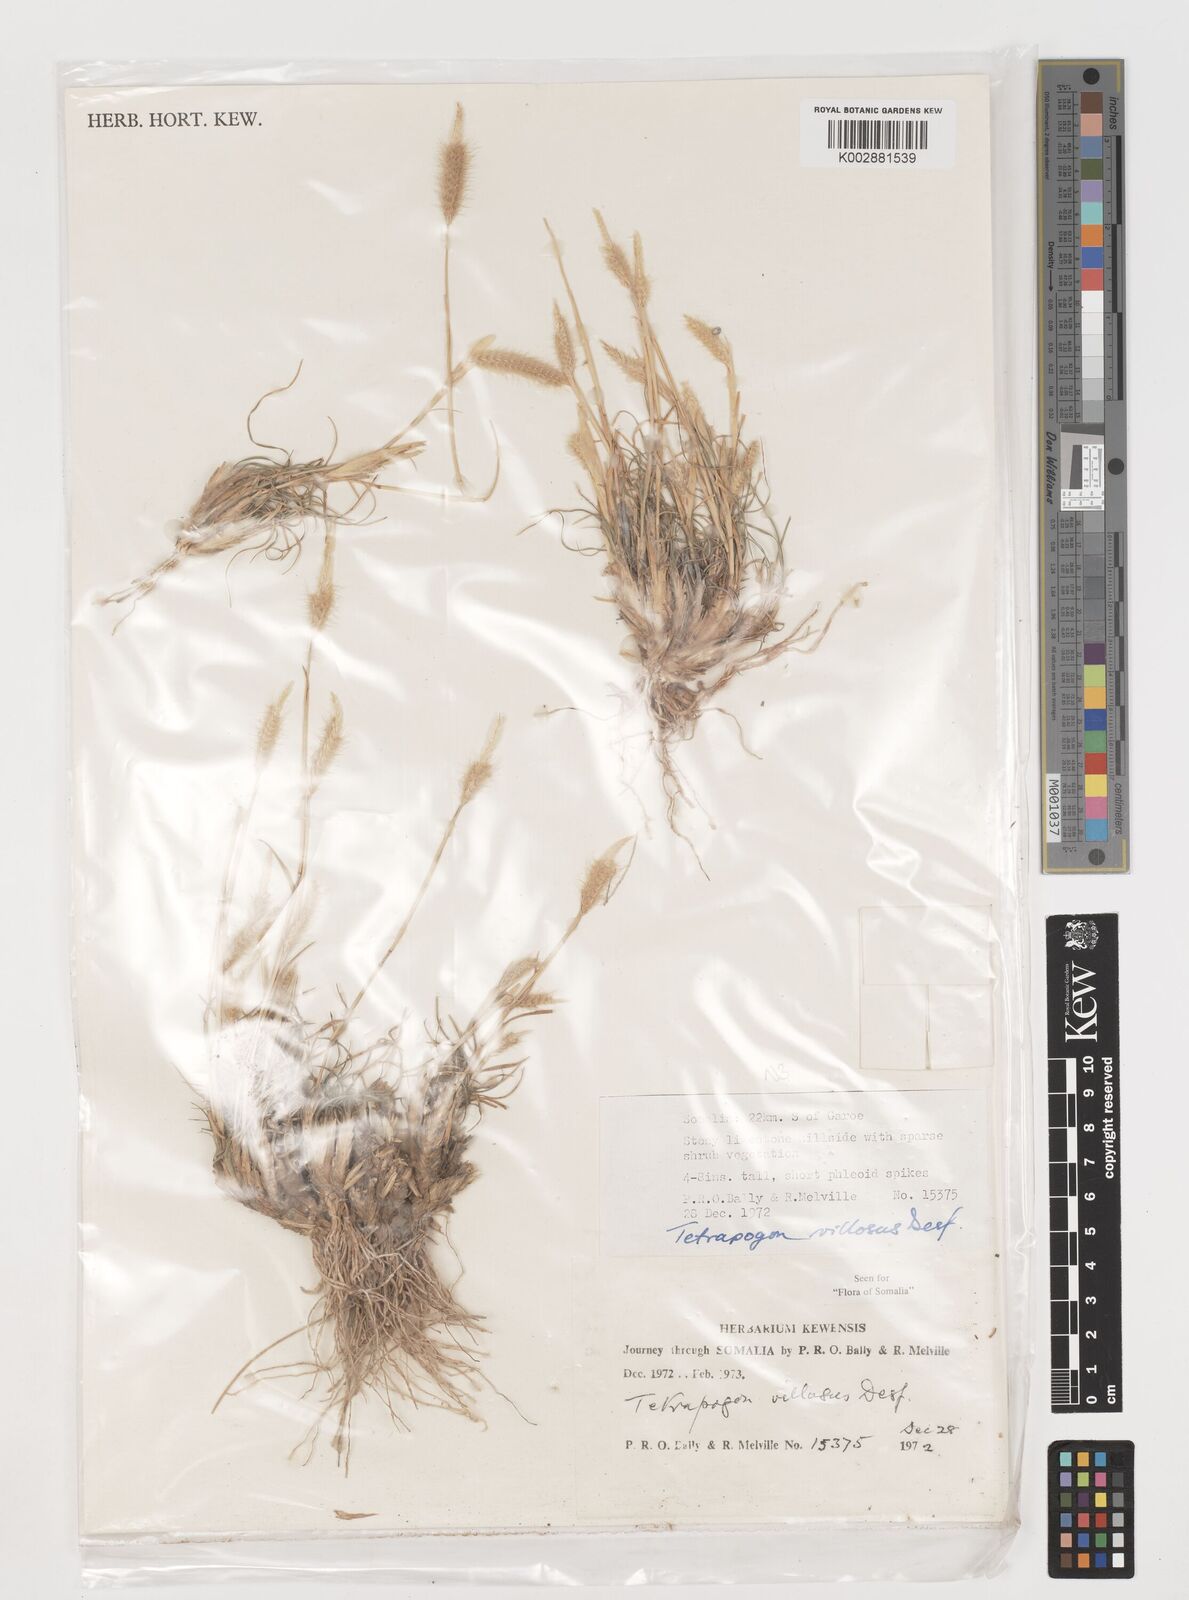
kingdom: Plantae
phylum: Tracheophyta
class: Liliopsida
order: Poales
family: Poaceae
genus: Tetrapogon
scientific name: Tetrapogon villosus
